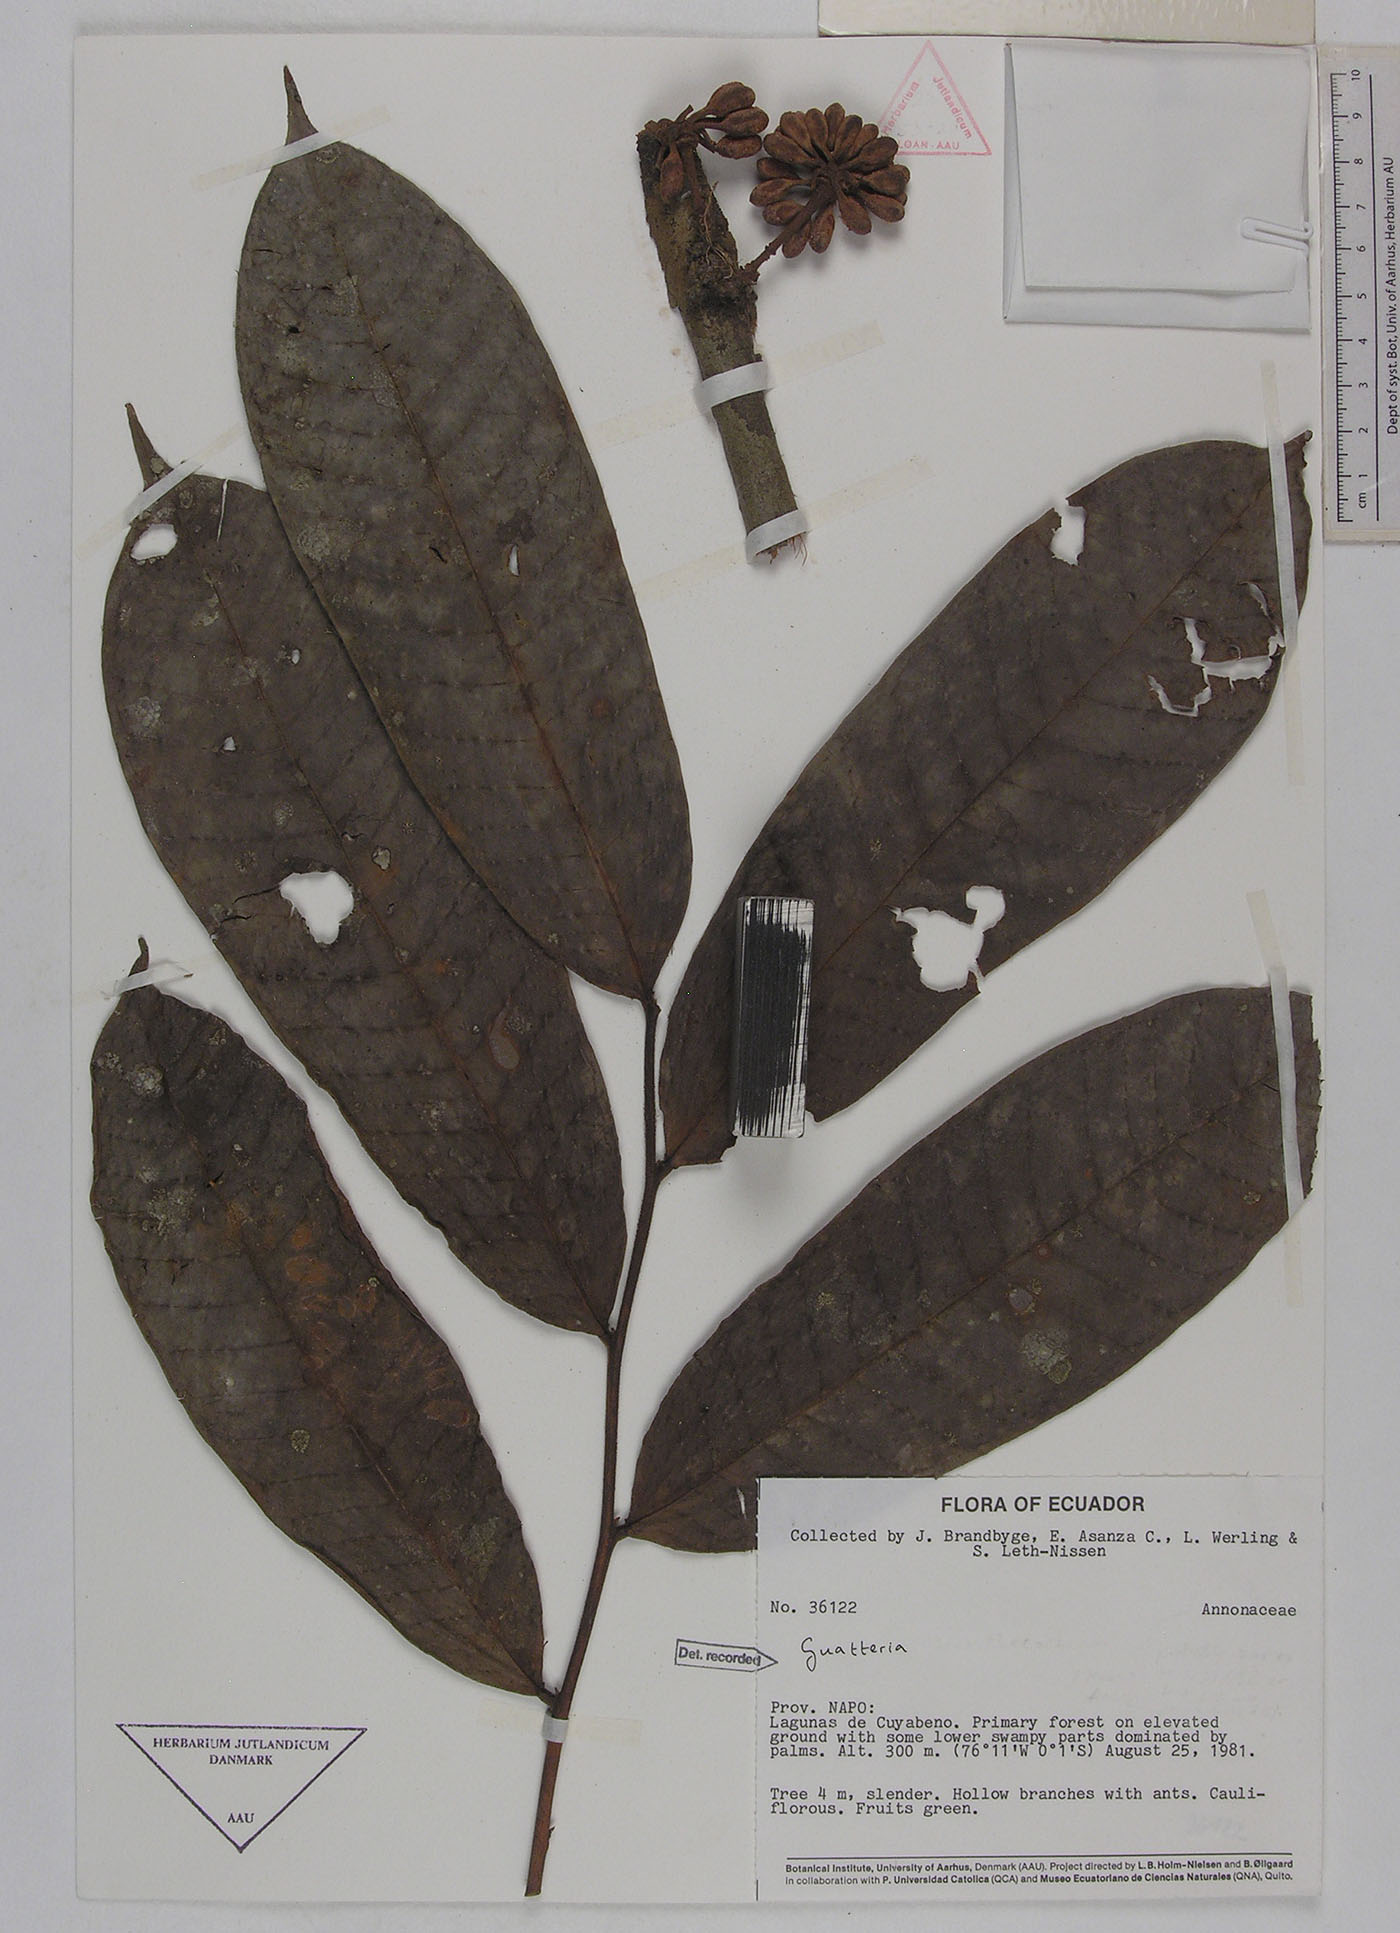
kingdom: Plantae
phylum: Tracheophyta
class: Magnoliopsida
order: Magnoliales
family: Annonaceae
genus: Guatteria
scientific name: Guatteria longicuspis
